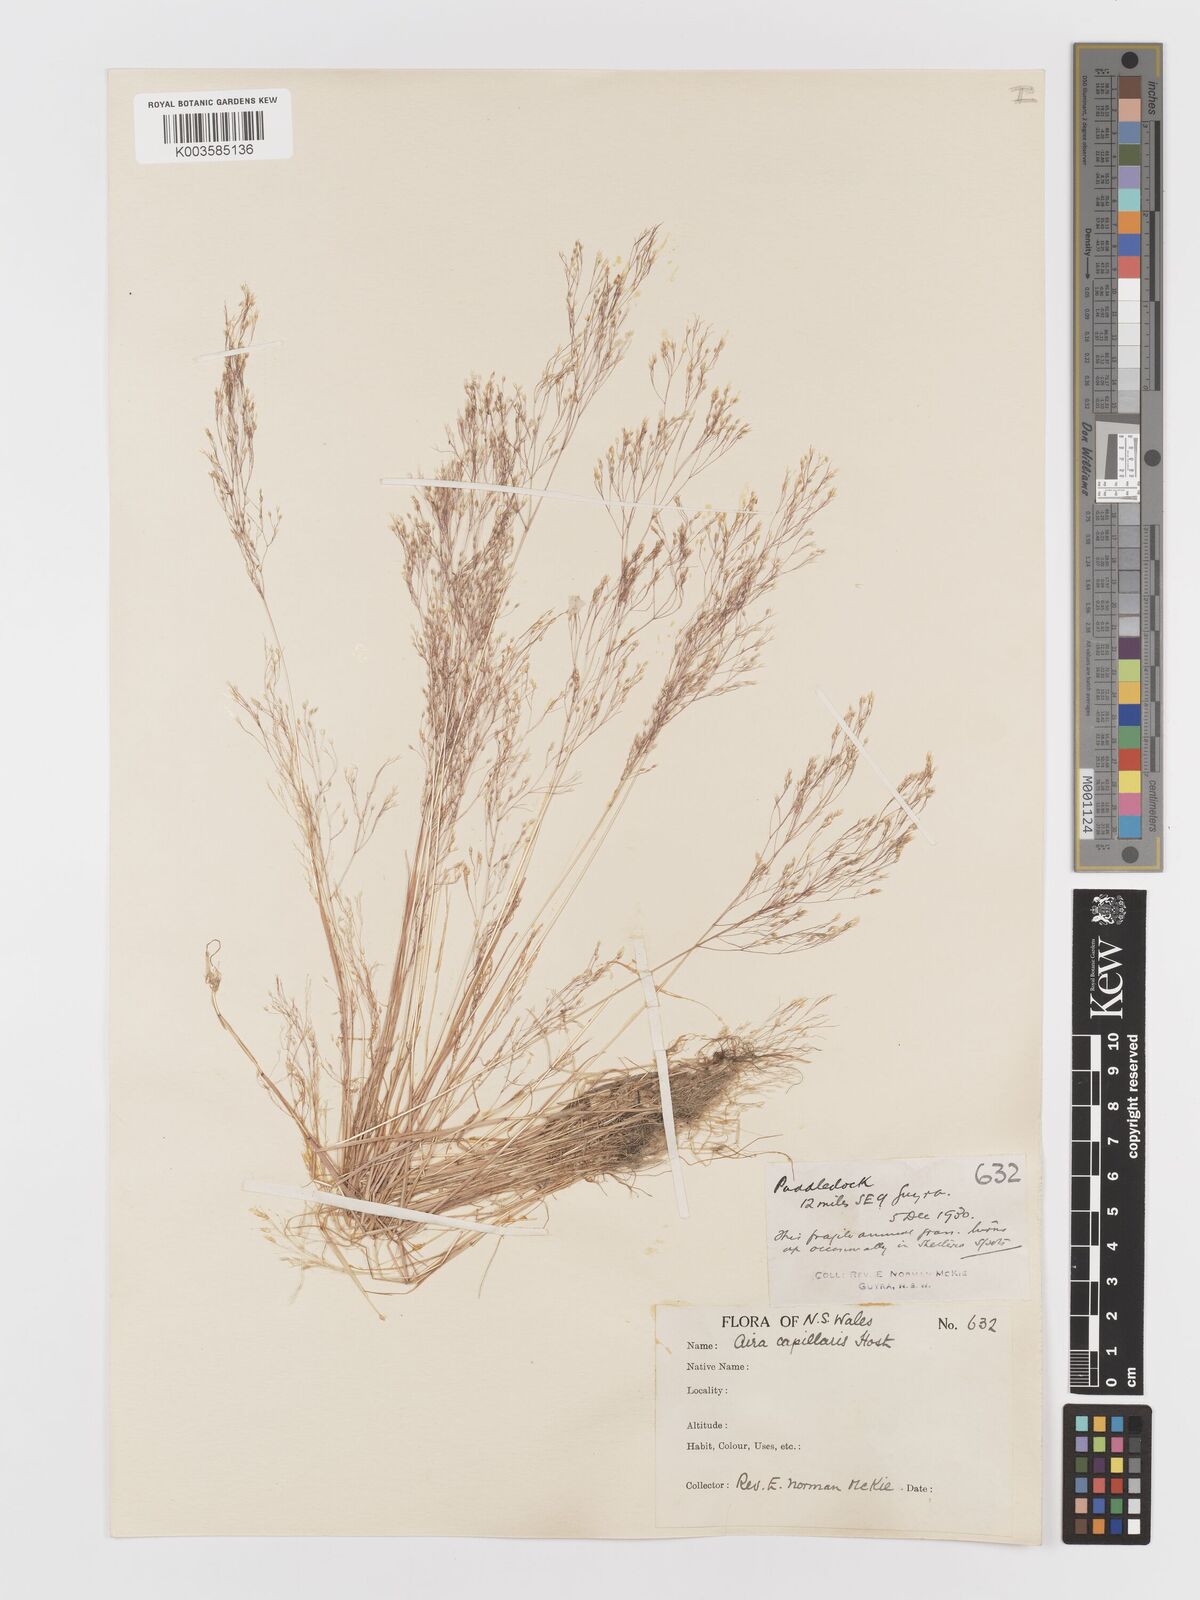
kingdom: Plantae
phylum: Tracheophyta
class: Liliopsida
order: Poales
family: Poaceae
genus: Aira
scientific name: Aira cupaniana
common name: Silver hairgrass
